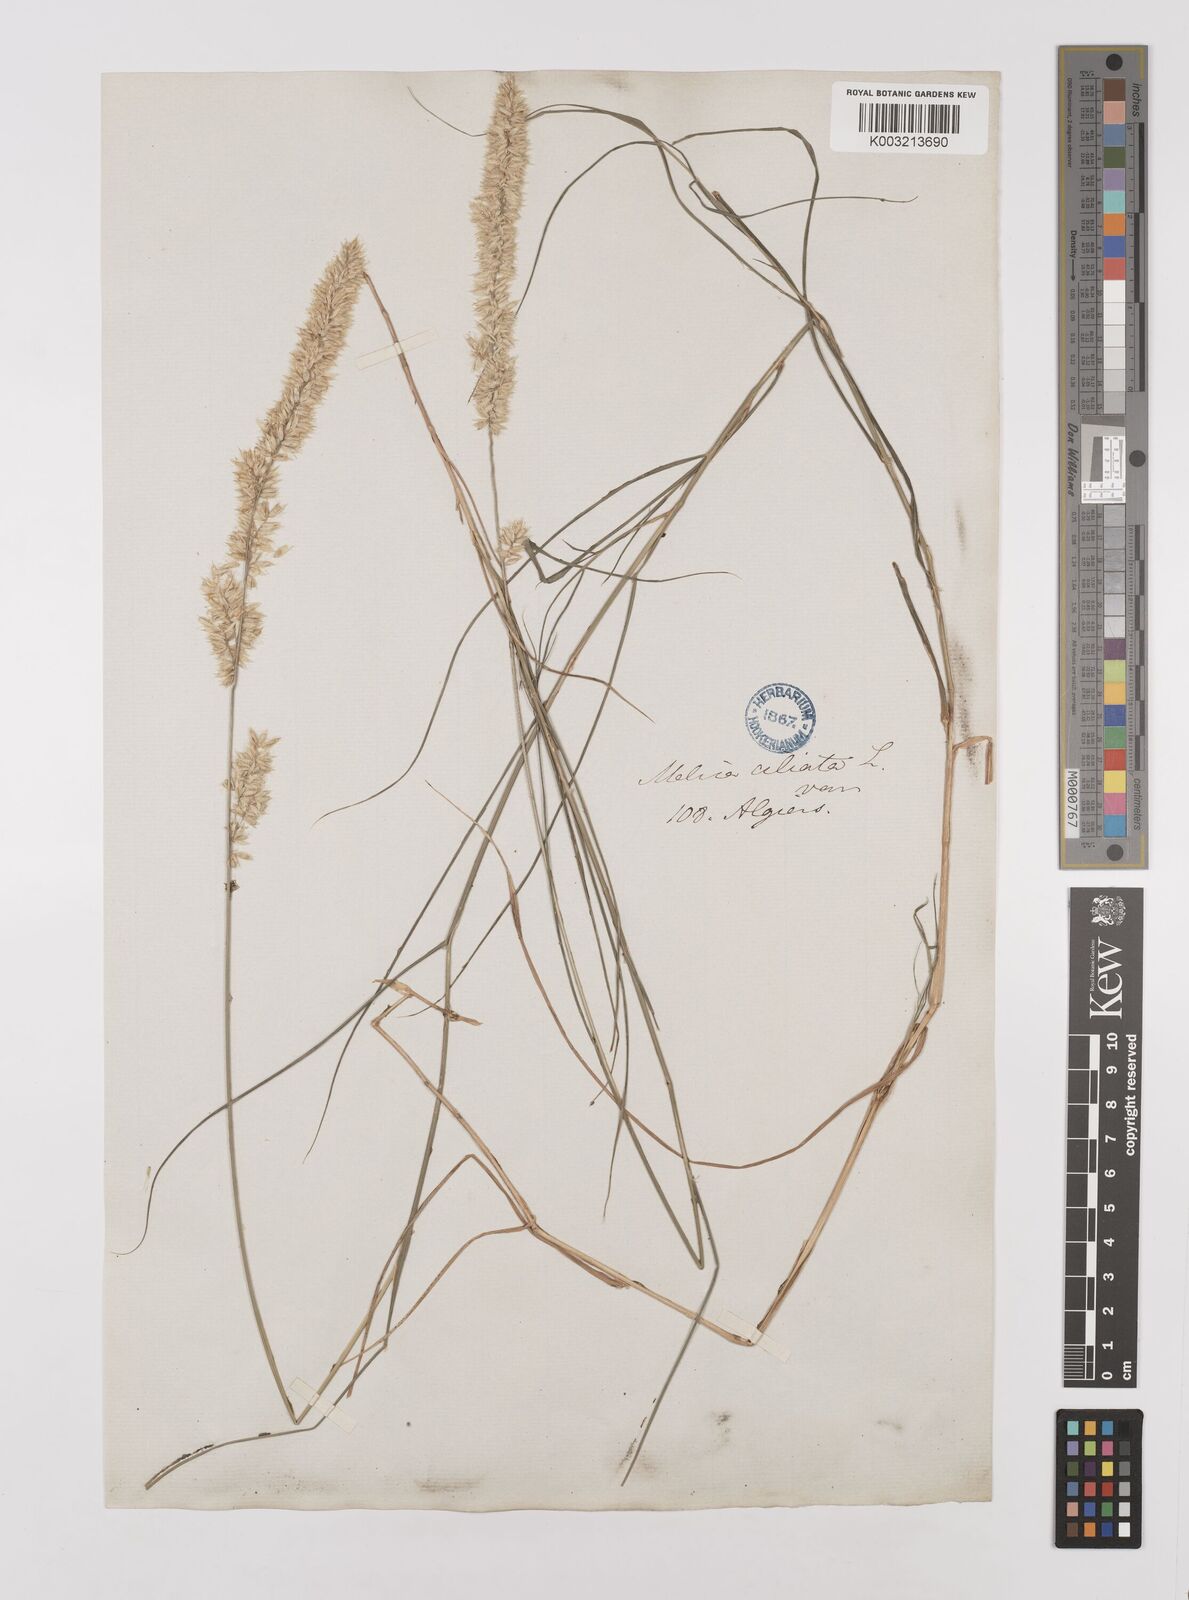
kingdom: Plantae
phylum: Tracheophyta
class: Liliopsida
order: Poales
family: Poaceae
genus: Melica
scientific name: Melica ciliata
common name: Hairy melicgrass
